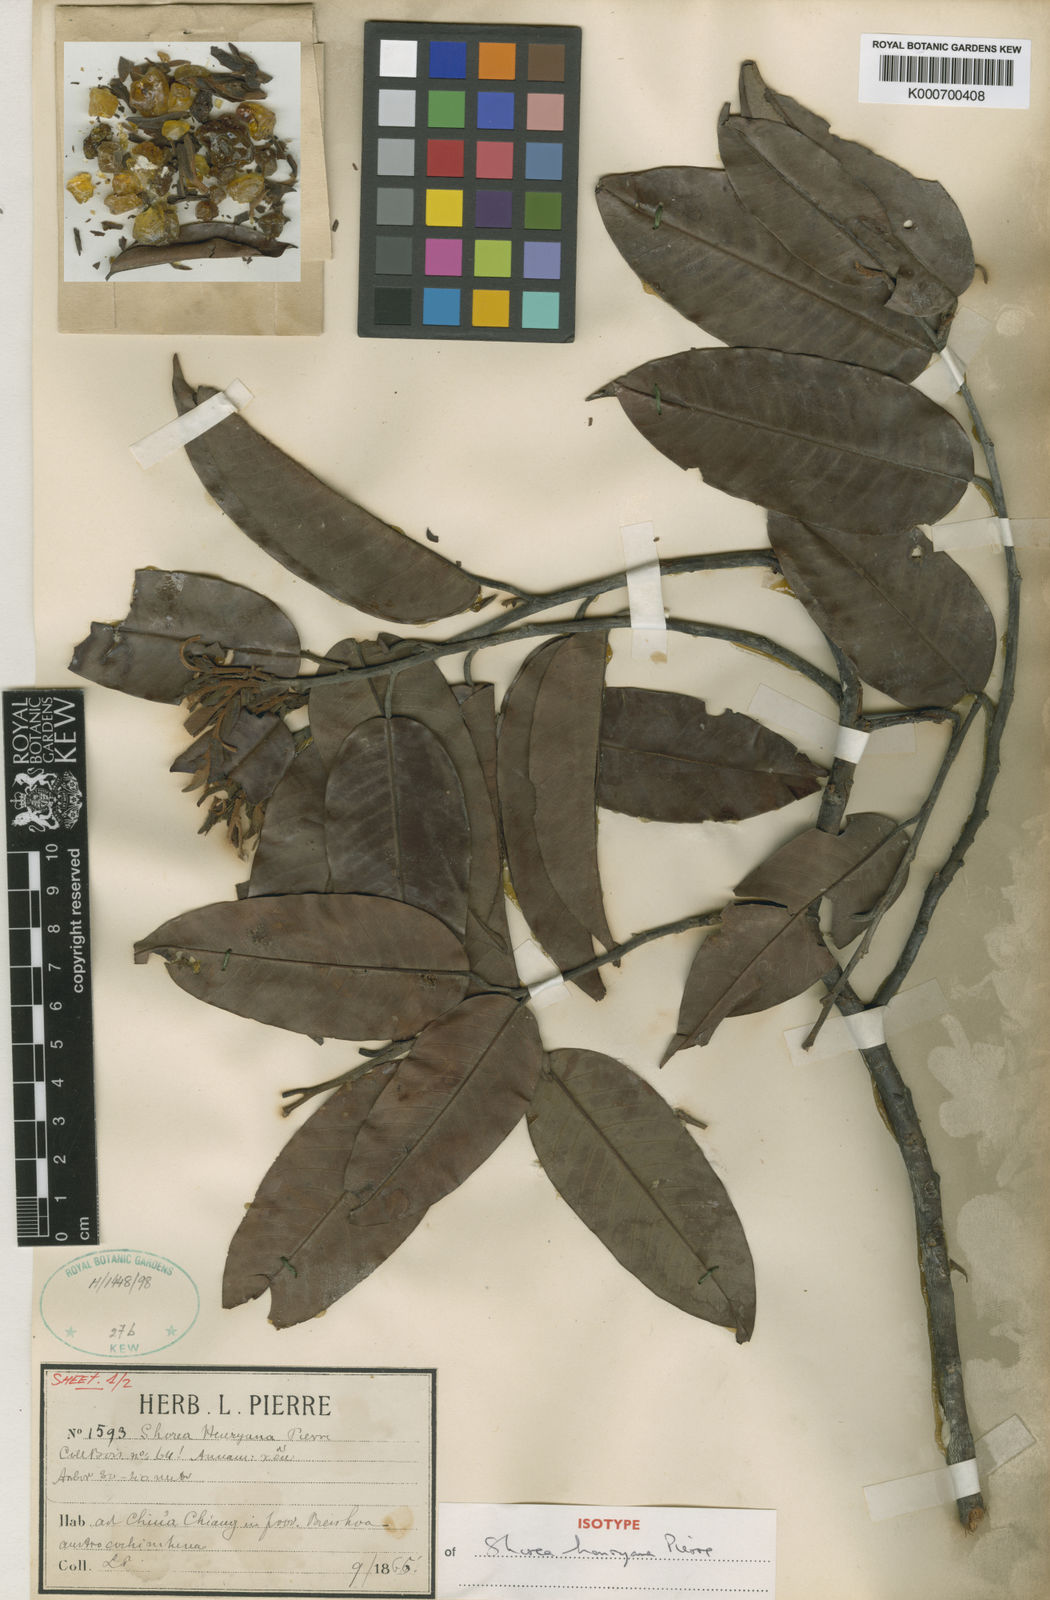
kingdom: Plantae
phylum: Tracheophyta
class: Magnoliopsida
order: Malvales
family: Dipterocarpaceae
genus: Shorea
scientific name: Shorea
